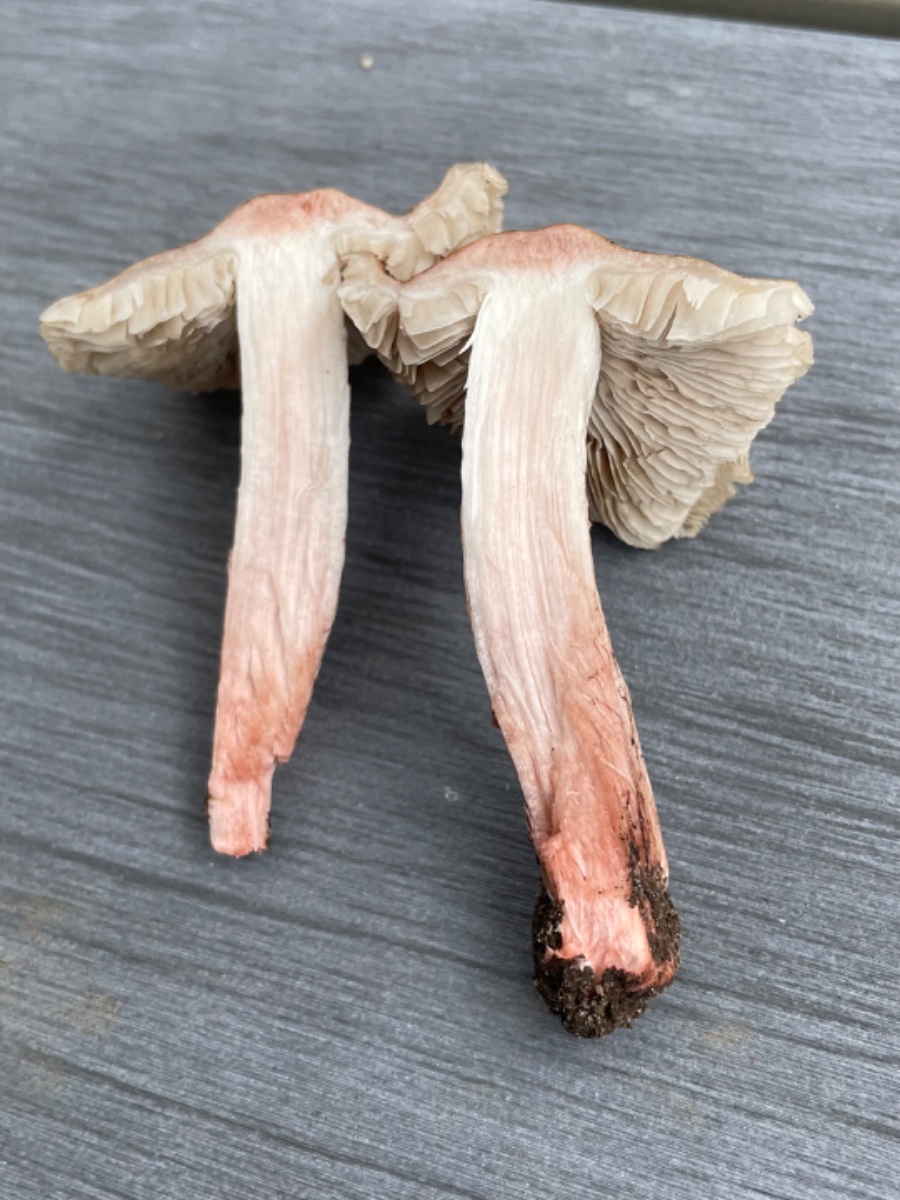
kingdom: Fungi
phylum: Basidiomycota
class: Agaricomycetes
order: Agaricales
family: Inocybaceae
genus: Inosperma
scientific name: Inosperma adaequatum
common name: vinrød trævlhat
